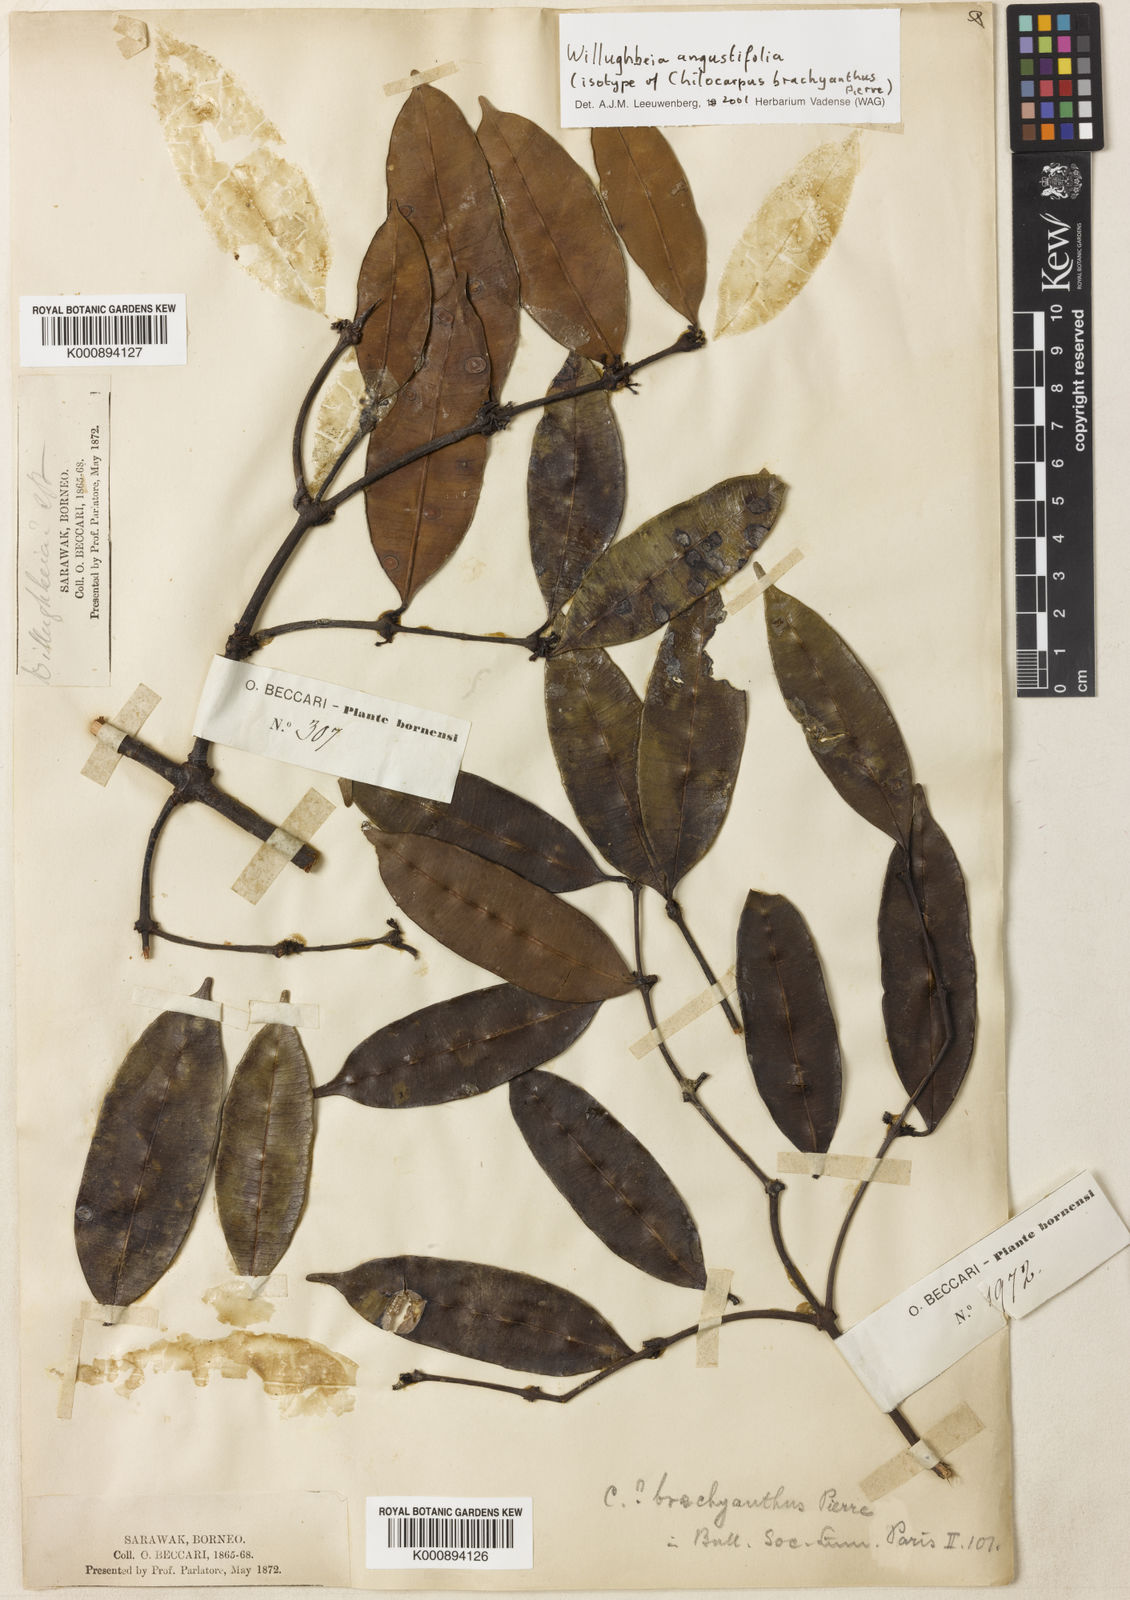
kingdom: Plantae
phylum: Tracheophyta
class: Magnoliopsida
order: Gentianales
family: Apocynaceae
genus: Willughbeia
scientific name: Willughbeia angustifolia
